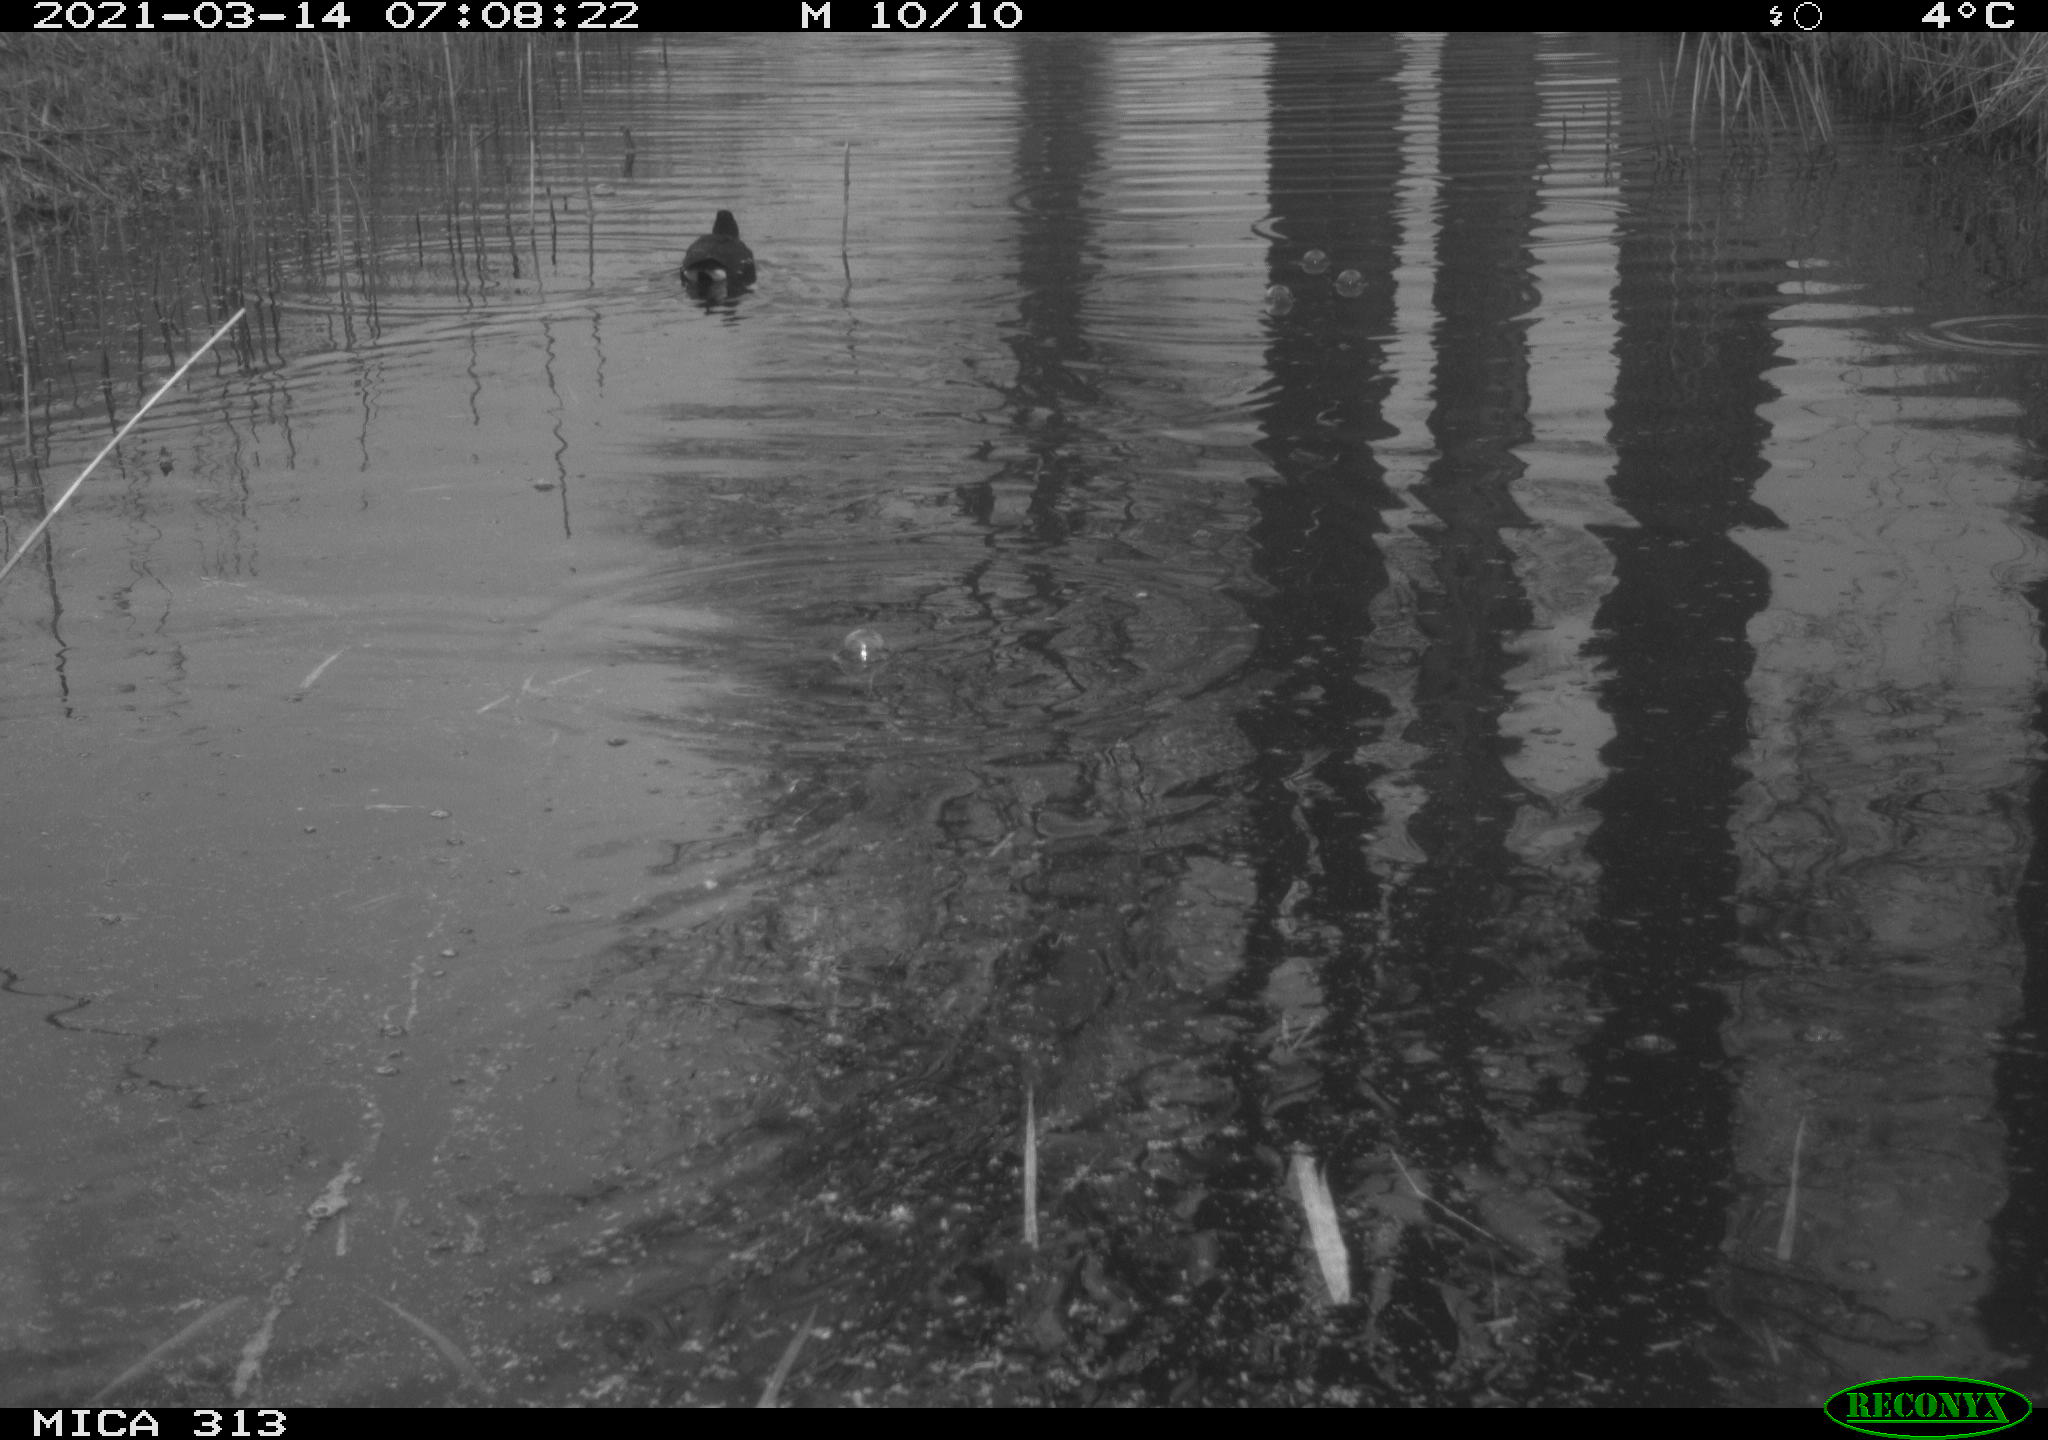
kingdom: Animalia
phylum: Chordata
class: Aves
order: Gruiformes
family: Rallidae
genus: Gallinula
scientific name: Gallinula chloropus
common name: Common moorhen
